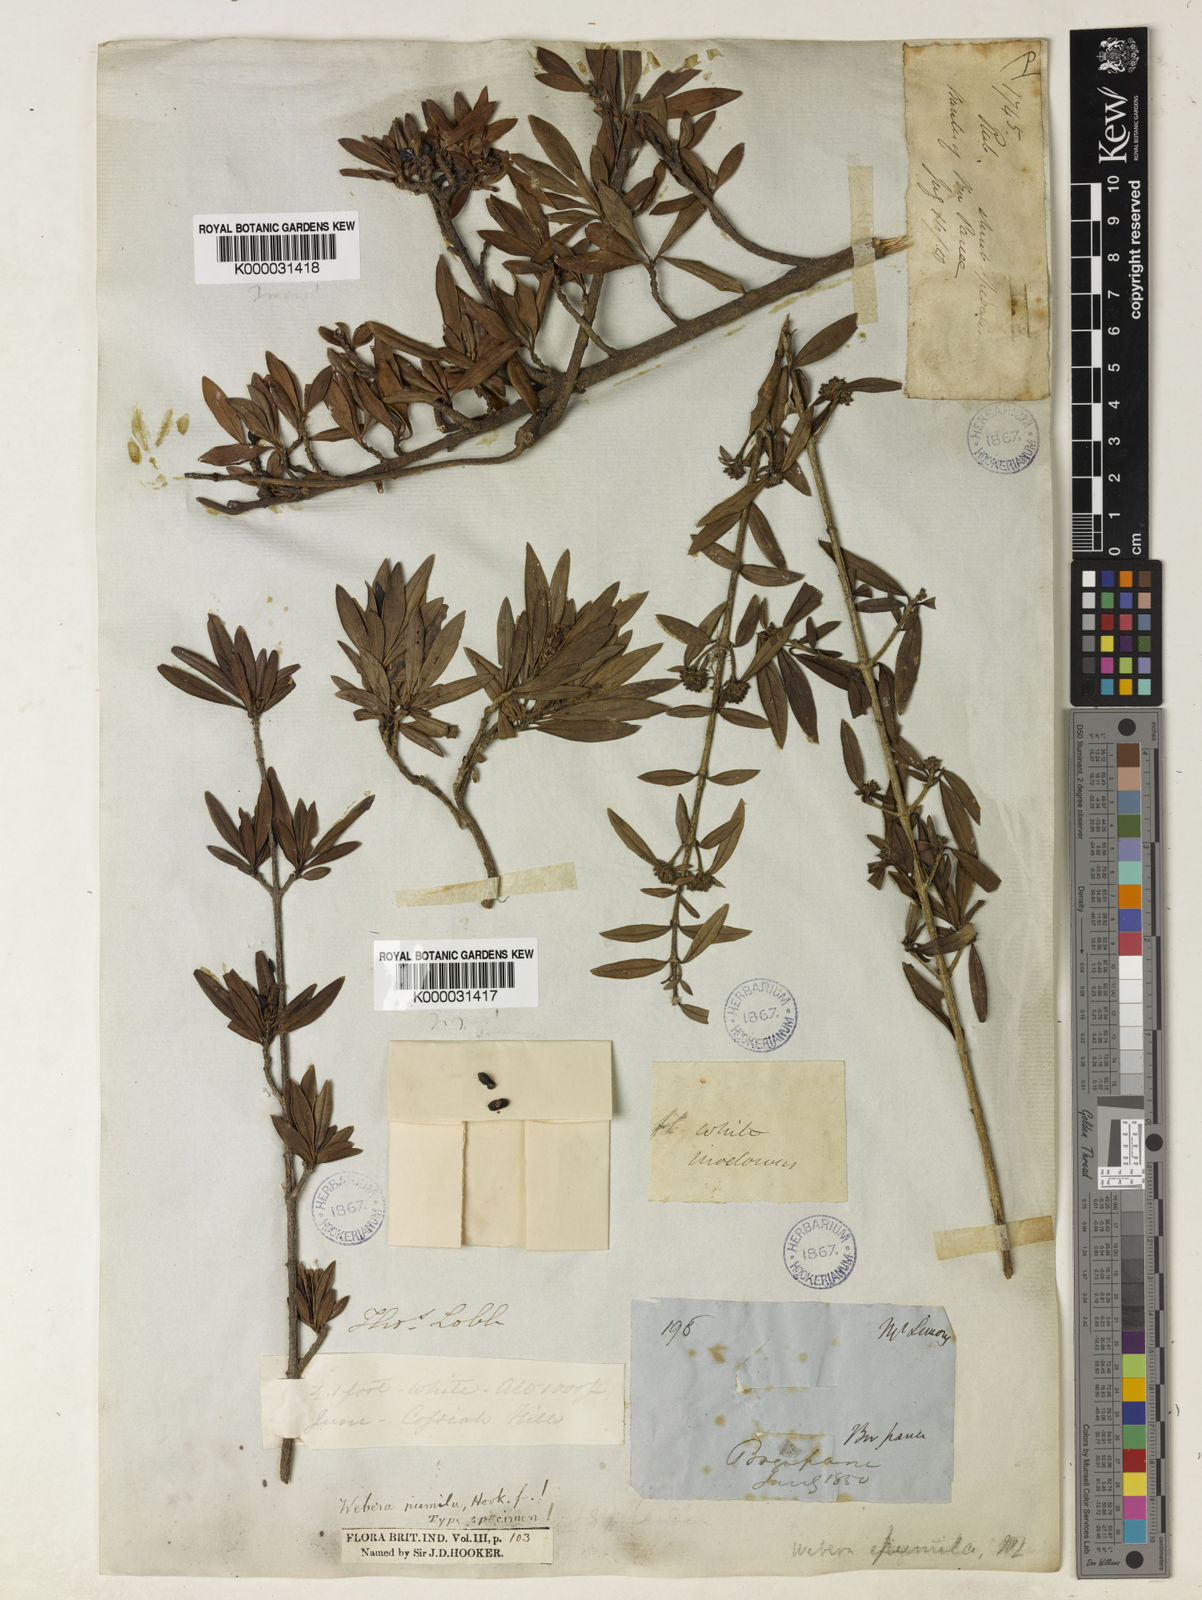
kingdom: Plantae
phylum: Tracheophyta
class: Magnoliopsida
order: Gentianales
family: Rubiaceae
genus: Tarenna
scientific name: Tarenna pumila
